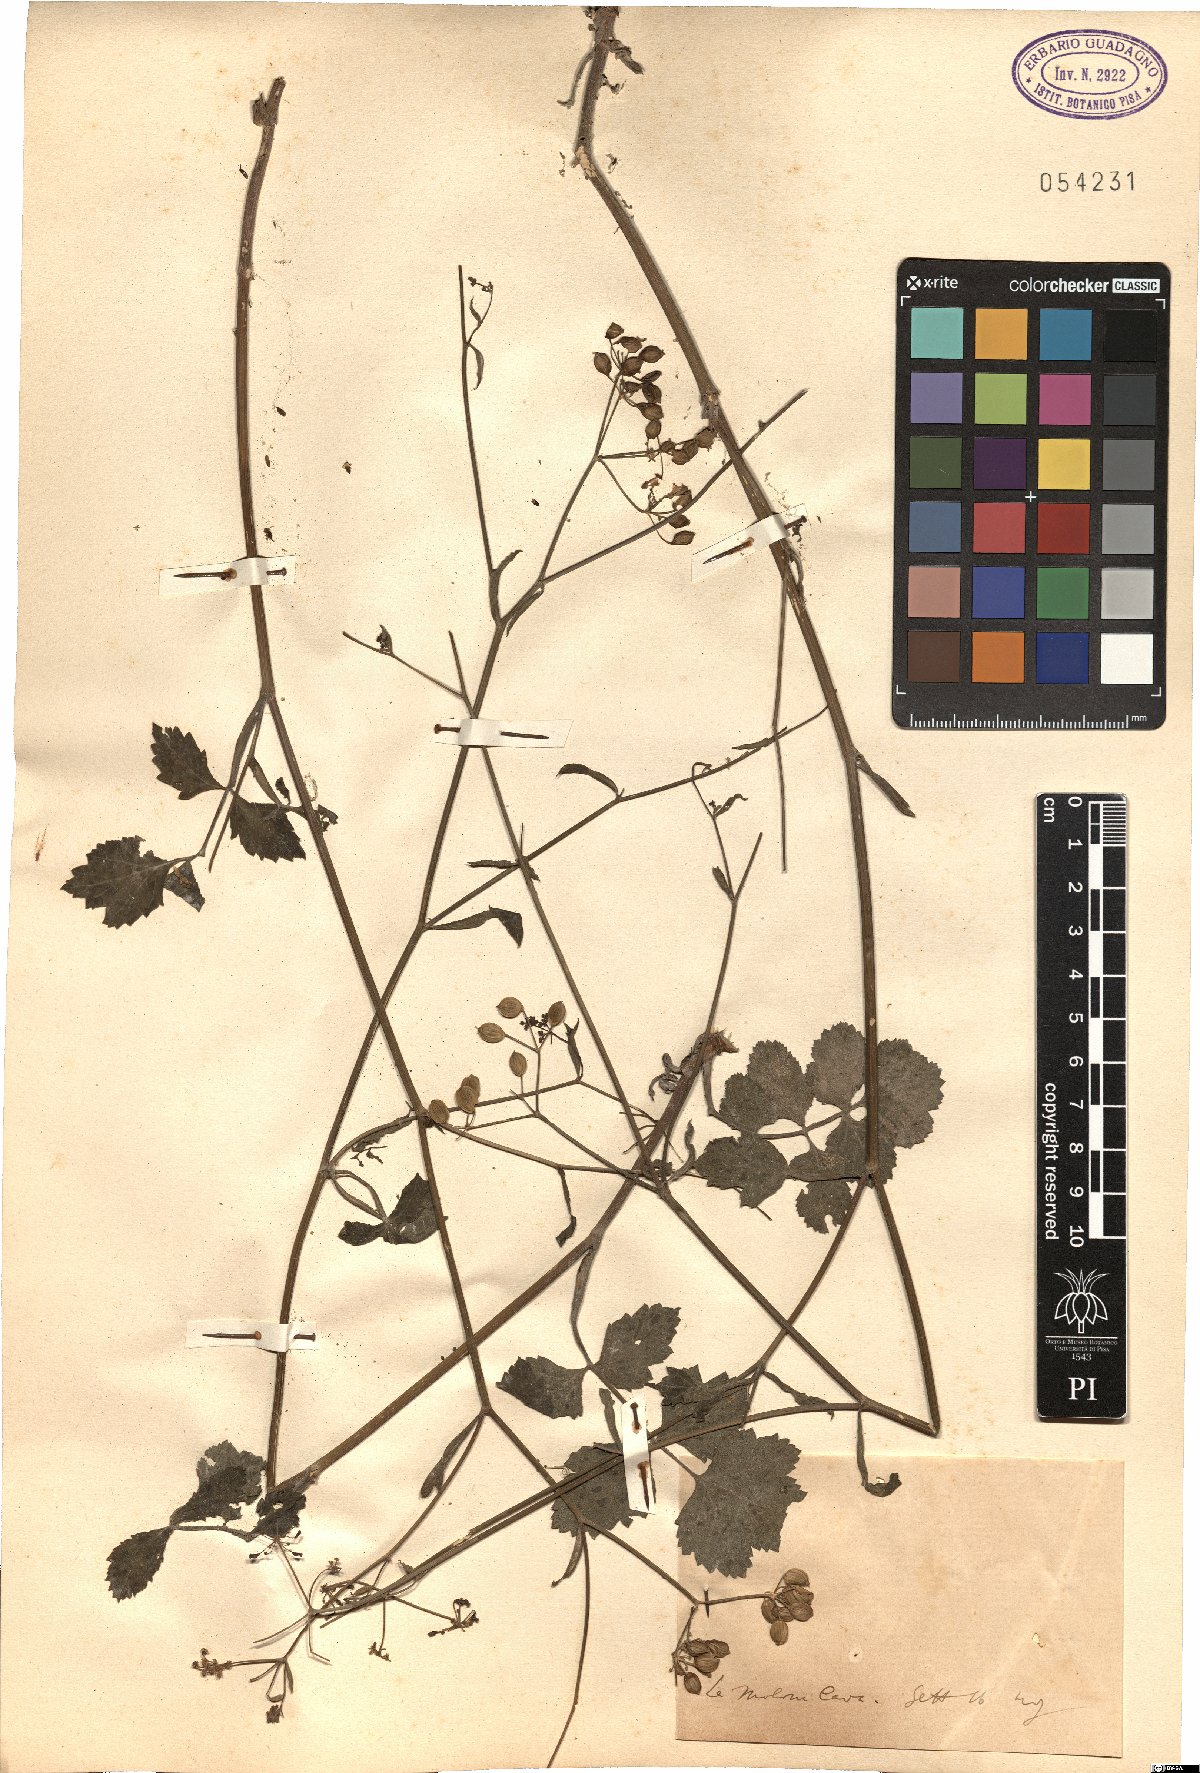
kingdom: Plantae
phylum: Tracheophyta
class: Magnoliopsida
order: Apiales
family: Apiaceae
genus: Pastinaca
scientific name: Pastinaca
